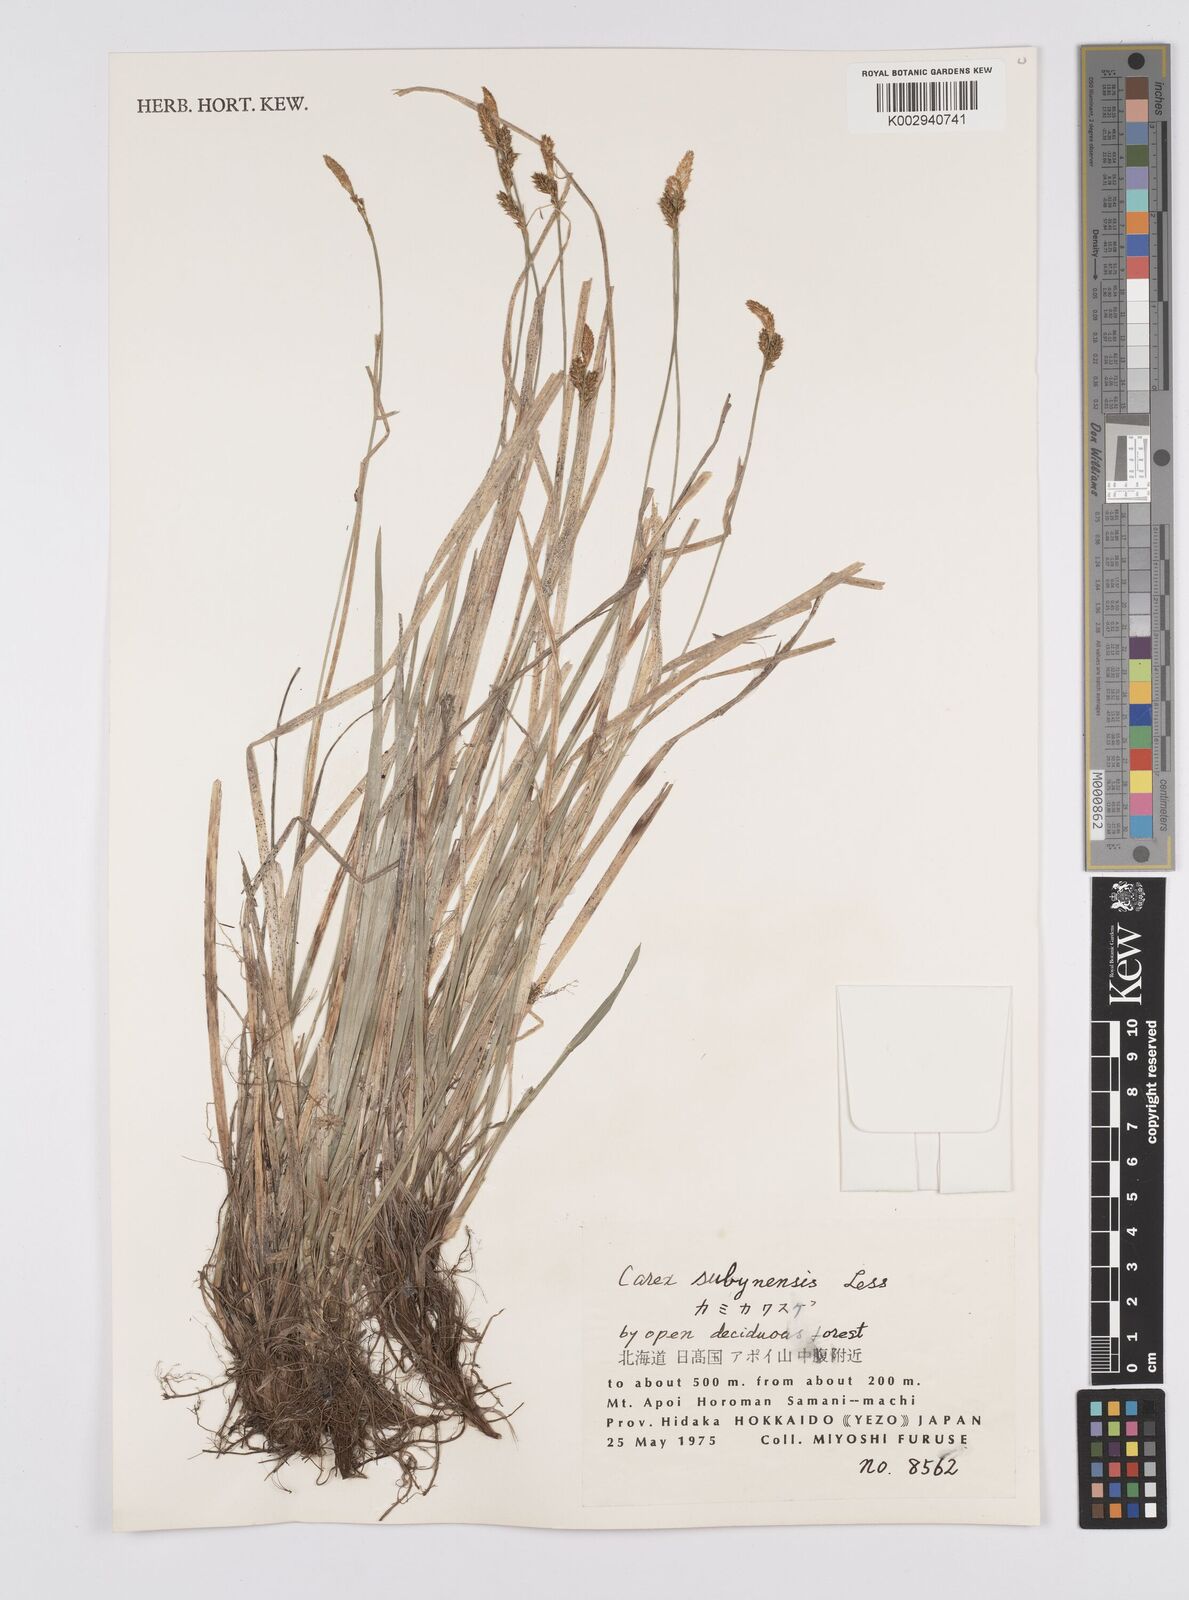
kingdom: Plantae
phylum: Tracheophyta
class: Liliopsida
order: Poales
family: Cyperaceae
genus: Carex
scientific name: Carex umbrosa
